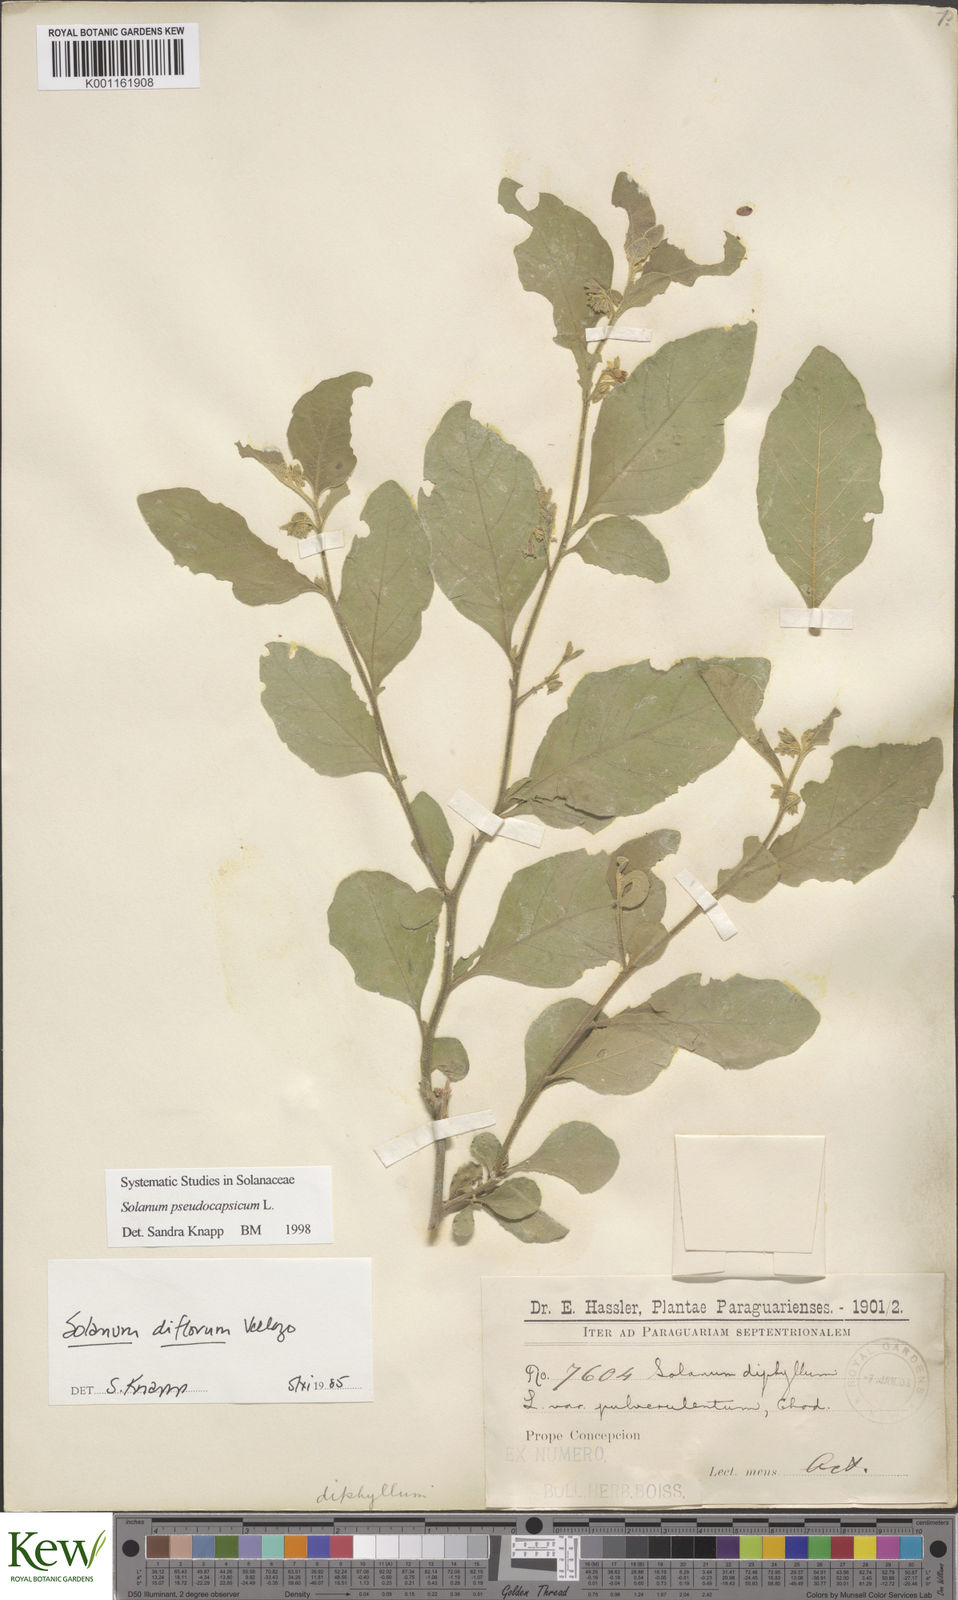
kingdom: Plantae
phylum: Tracheophyta
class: Magnoliopsida
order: Solanales
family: Solanaceae
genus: Solanum
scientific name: Solanum pseudocapsicum
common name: Jerusalem cherry
